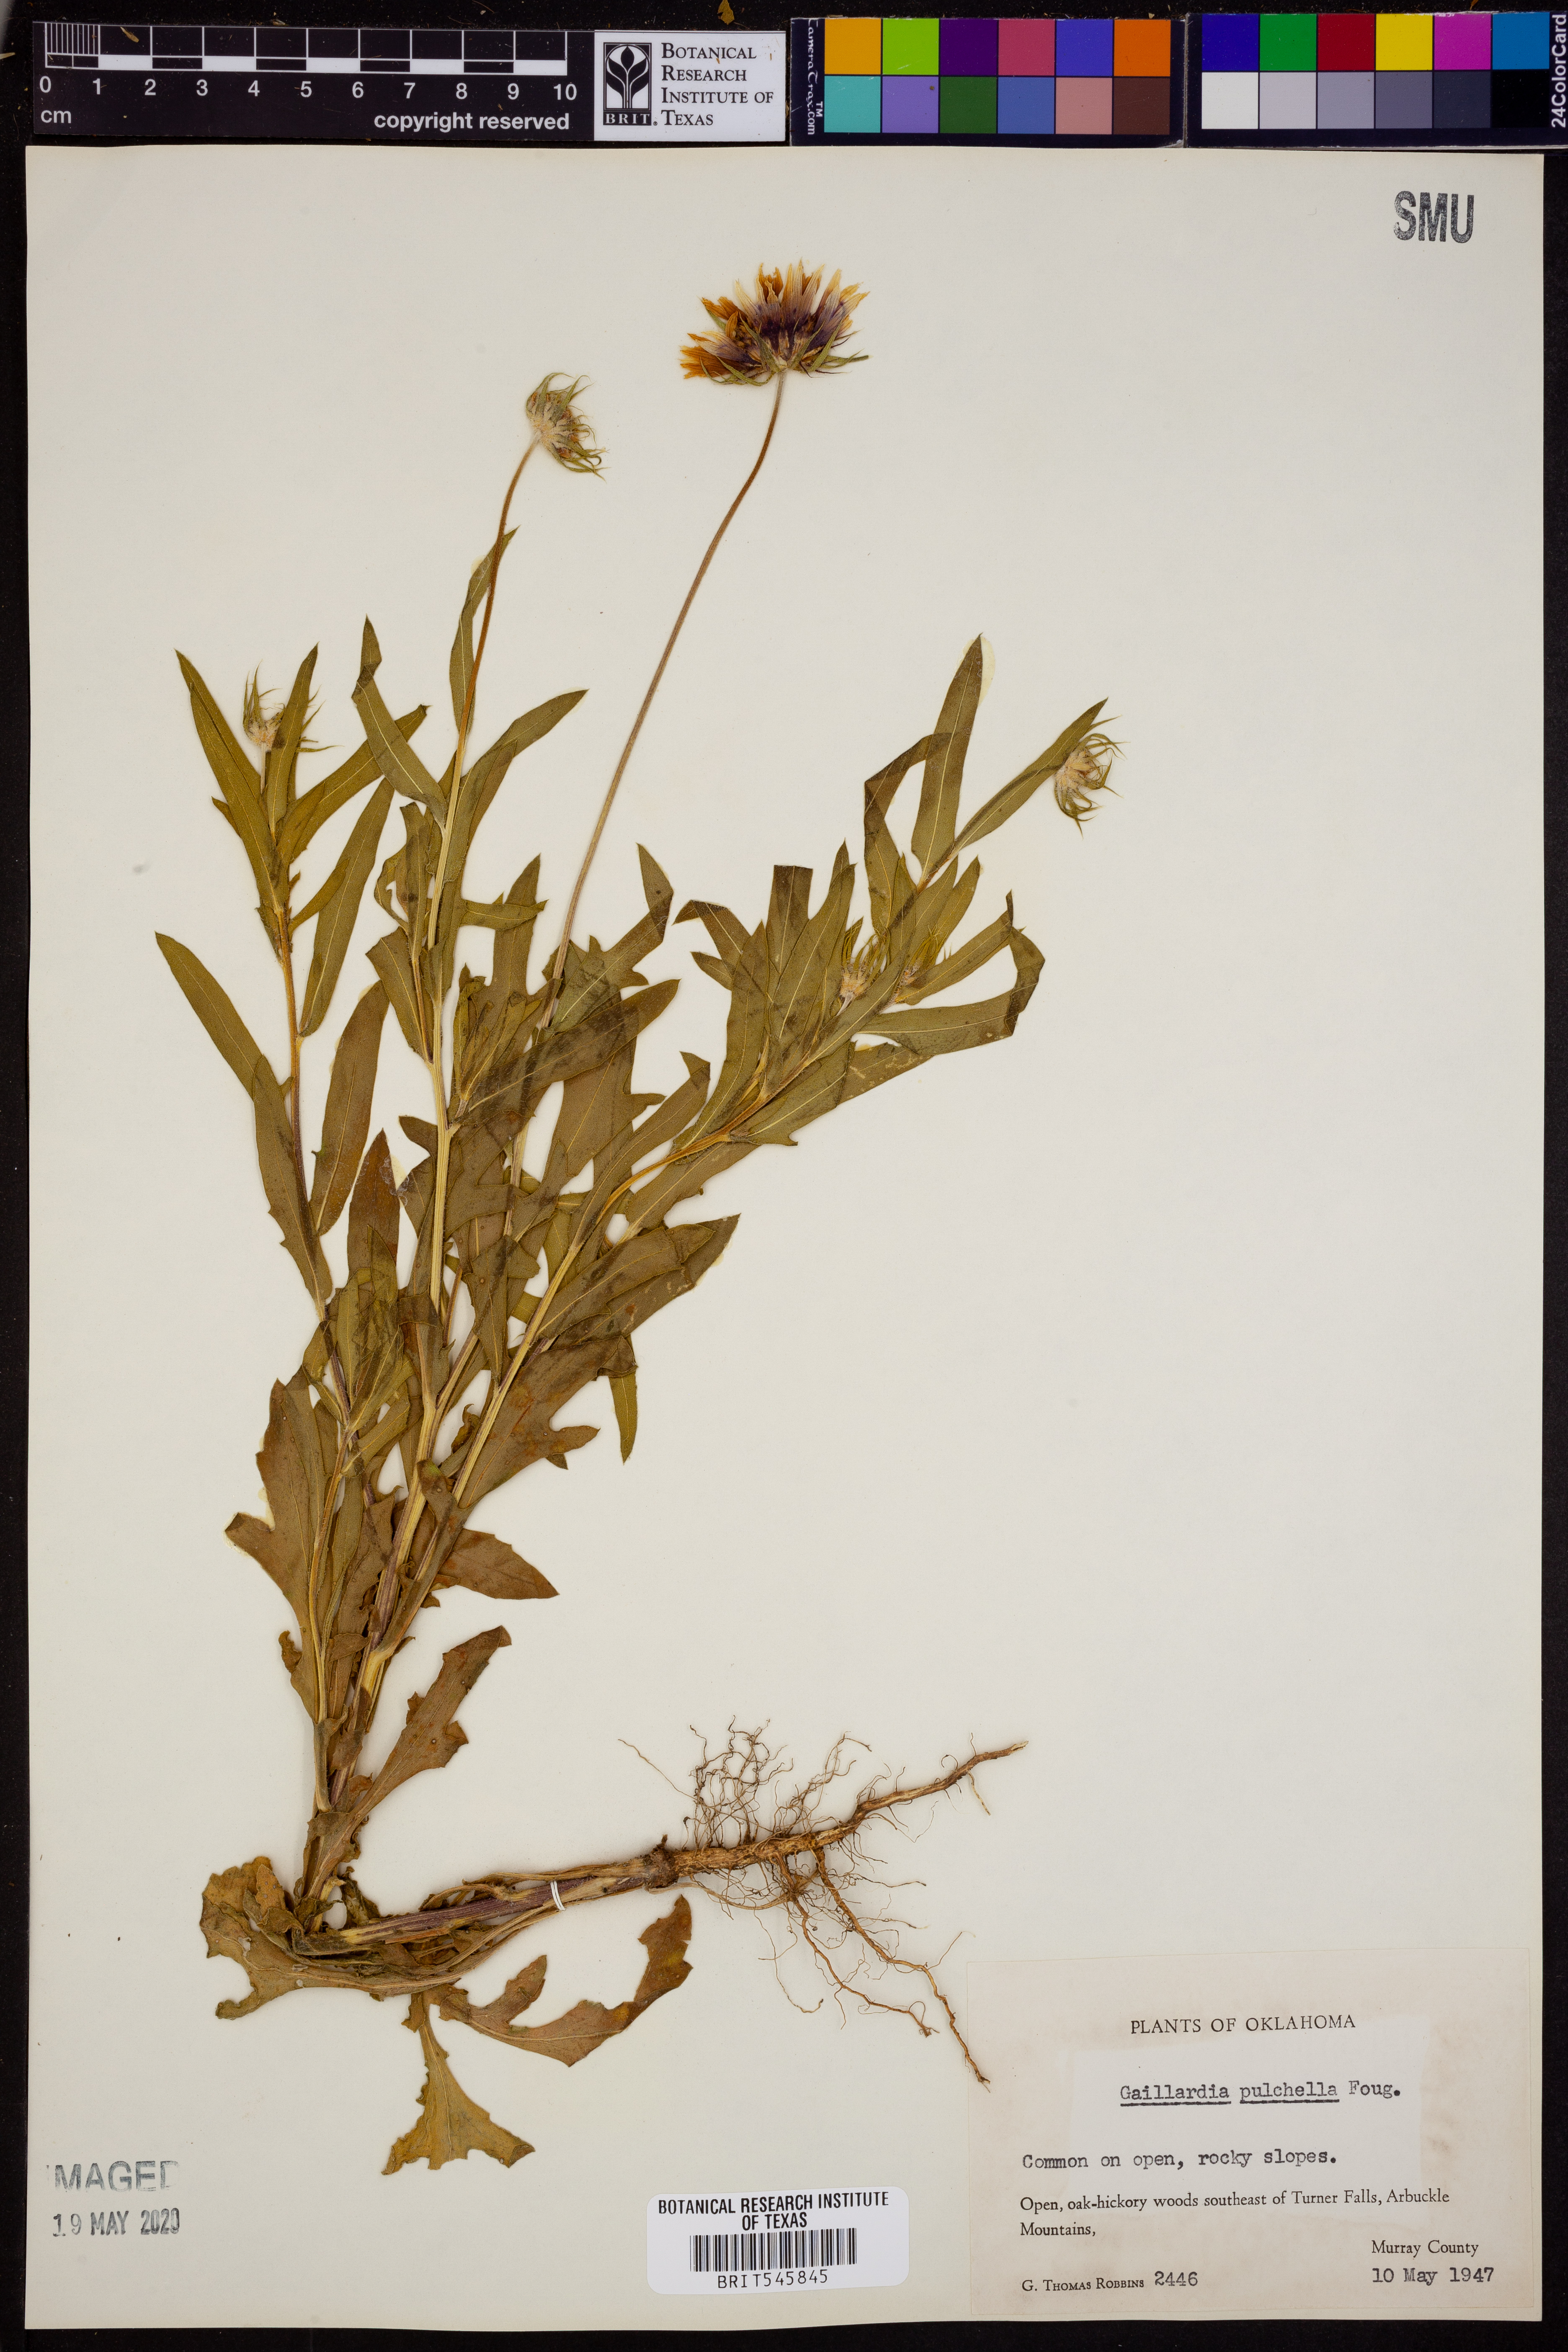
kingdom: Plantae
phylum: Tracheophyta
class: Magnoliopsida
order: Asterales
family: Asteraceae
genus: Gaillardia
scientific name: Gaillardia pulchella
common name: Firewheel
